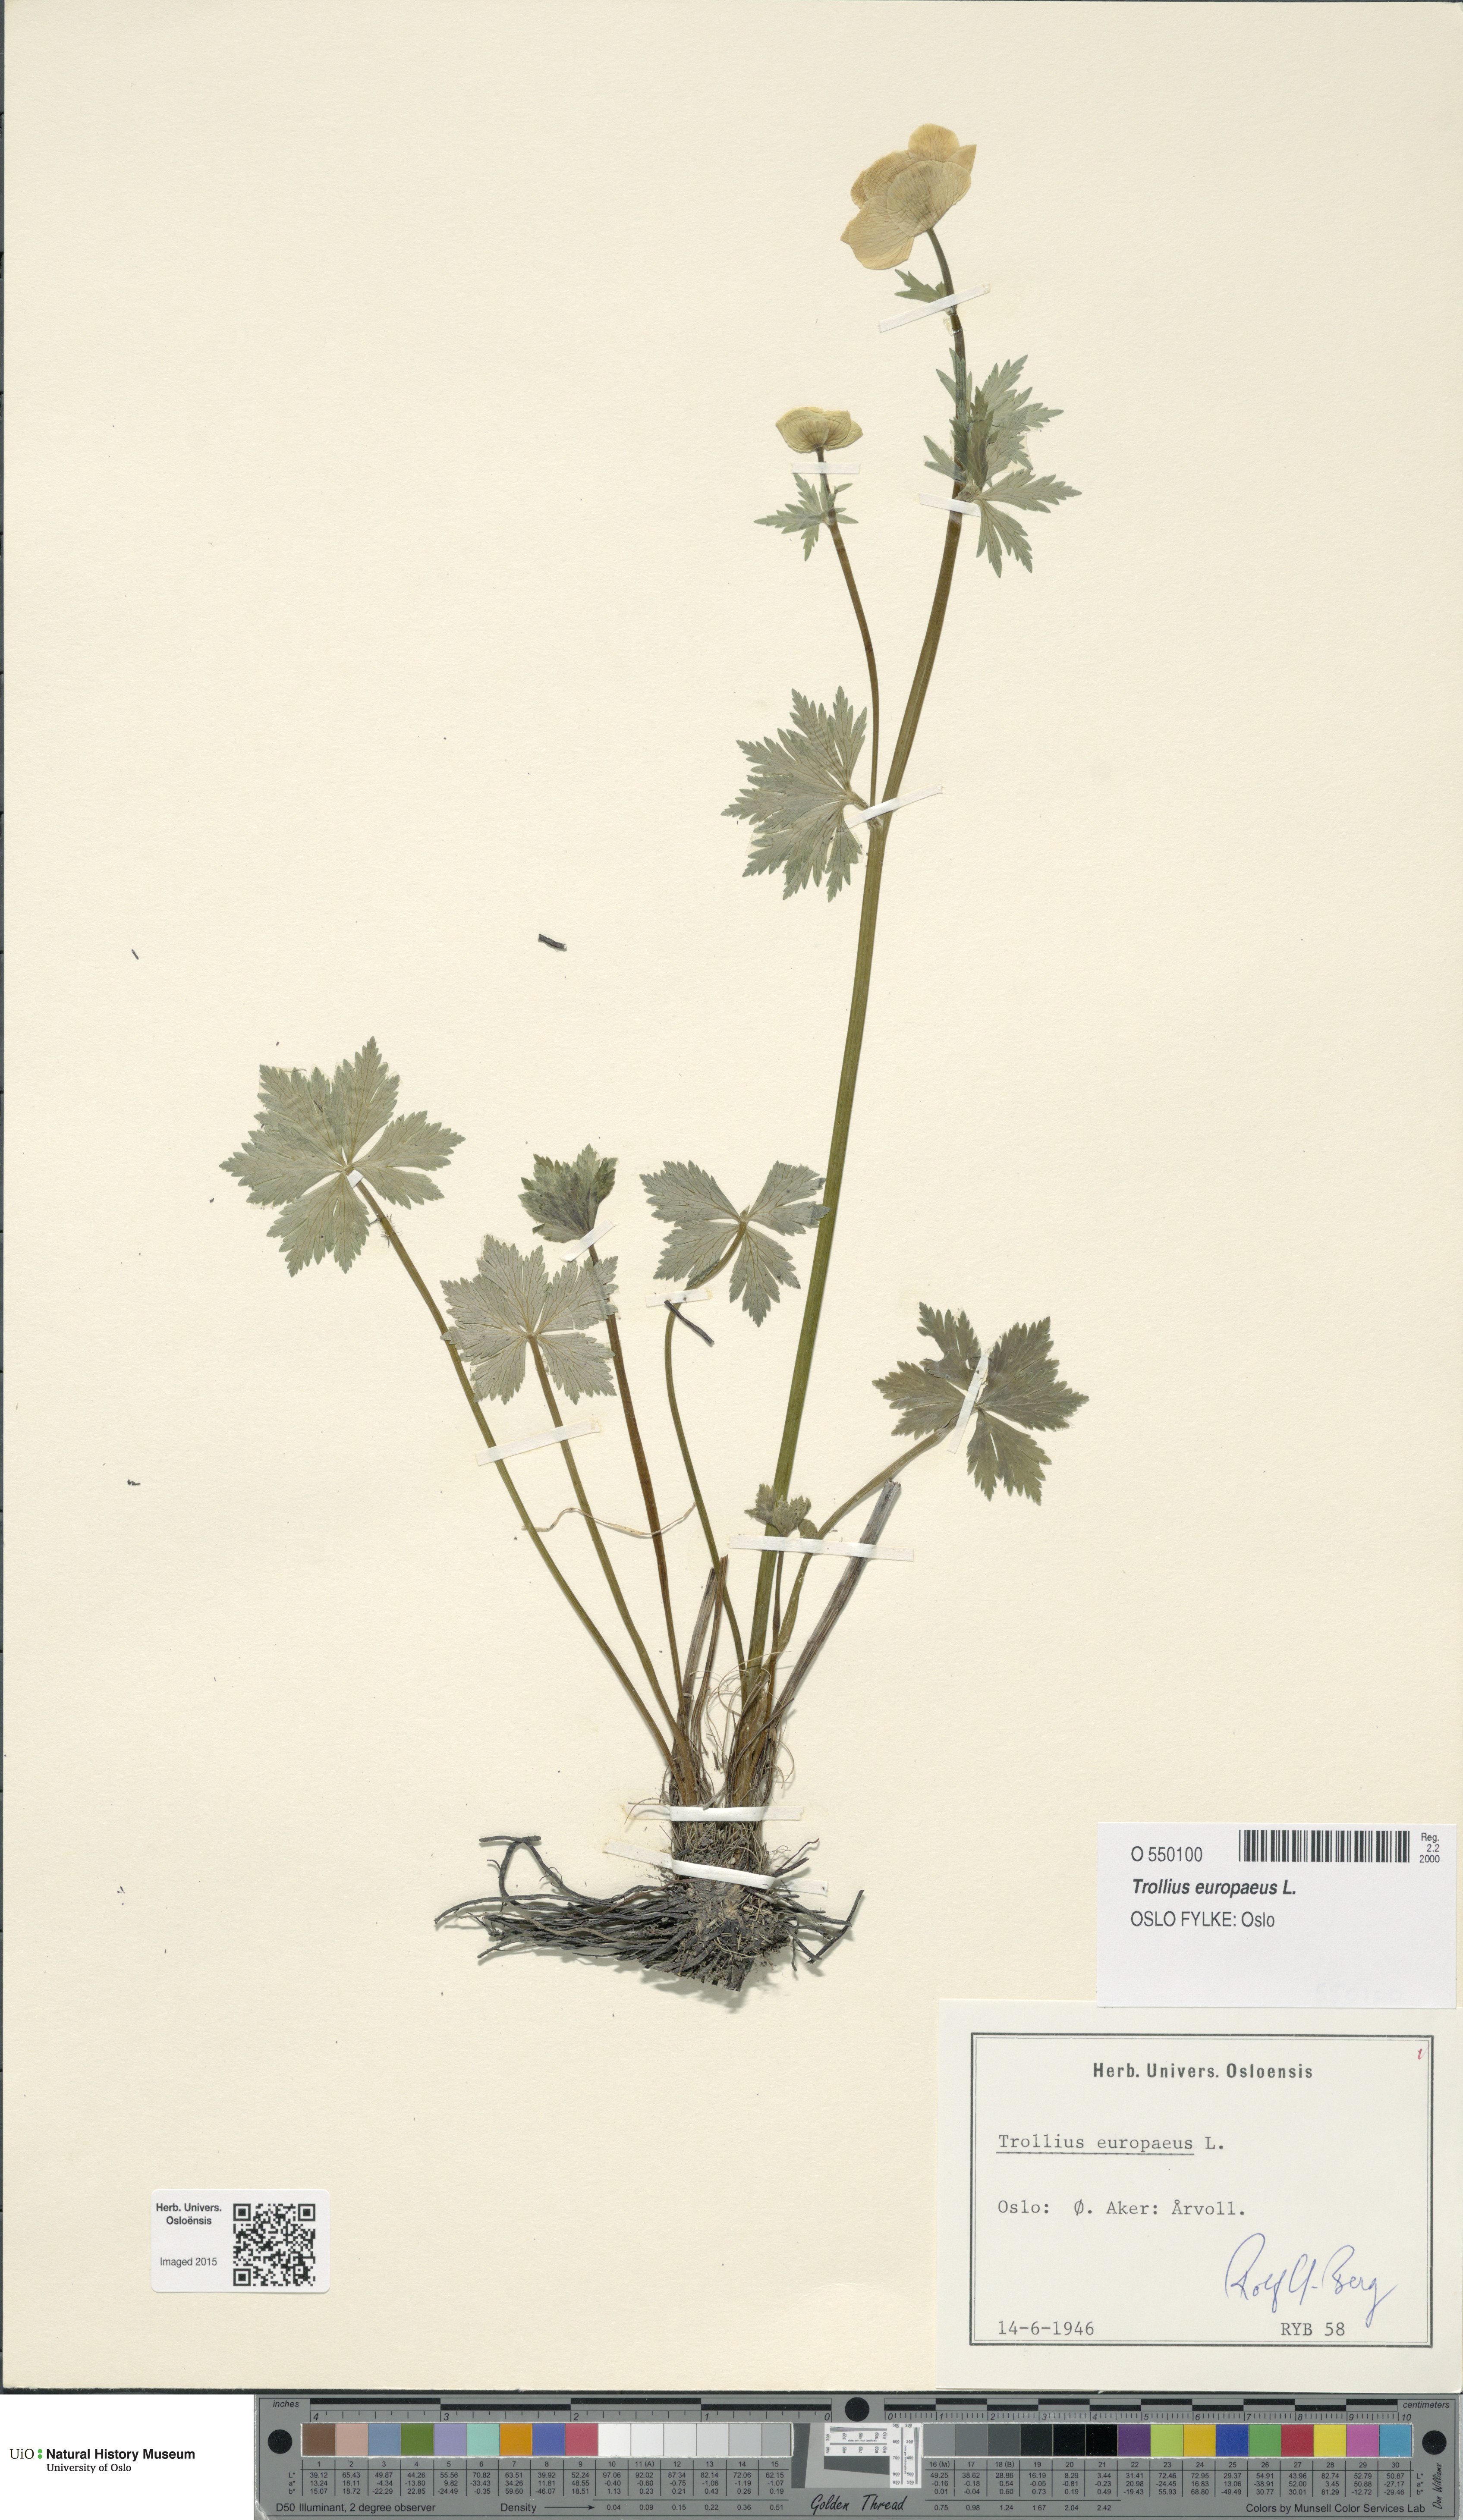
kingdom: Plantae
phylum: Tracheophyta
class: Magnoliopsida
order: Ranunculales
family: Ranunculaceae
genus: Trollius
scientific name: Trollius europaeus
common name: European globeflower
